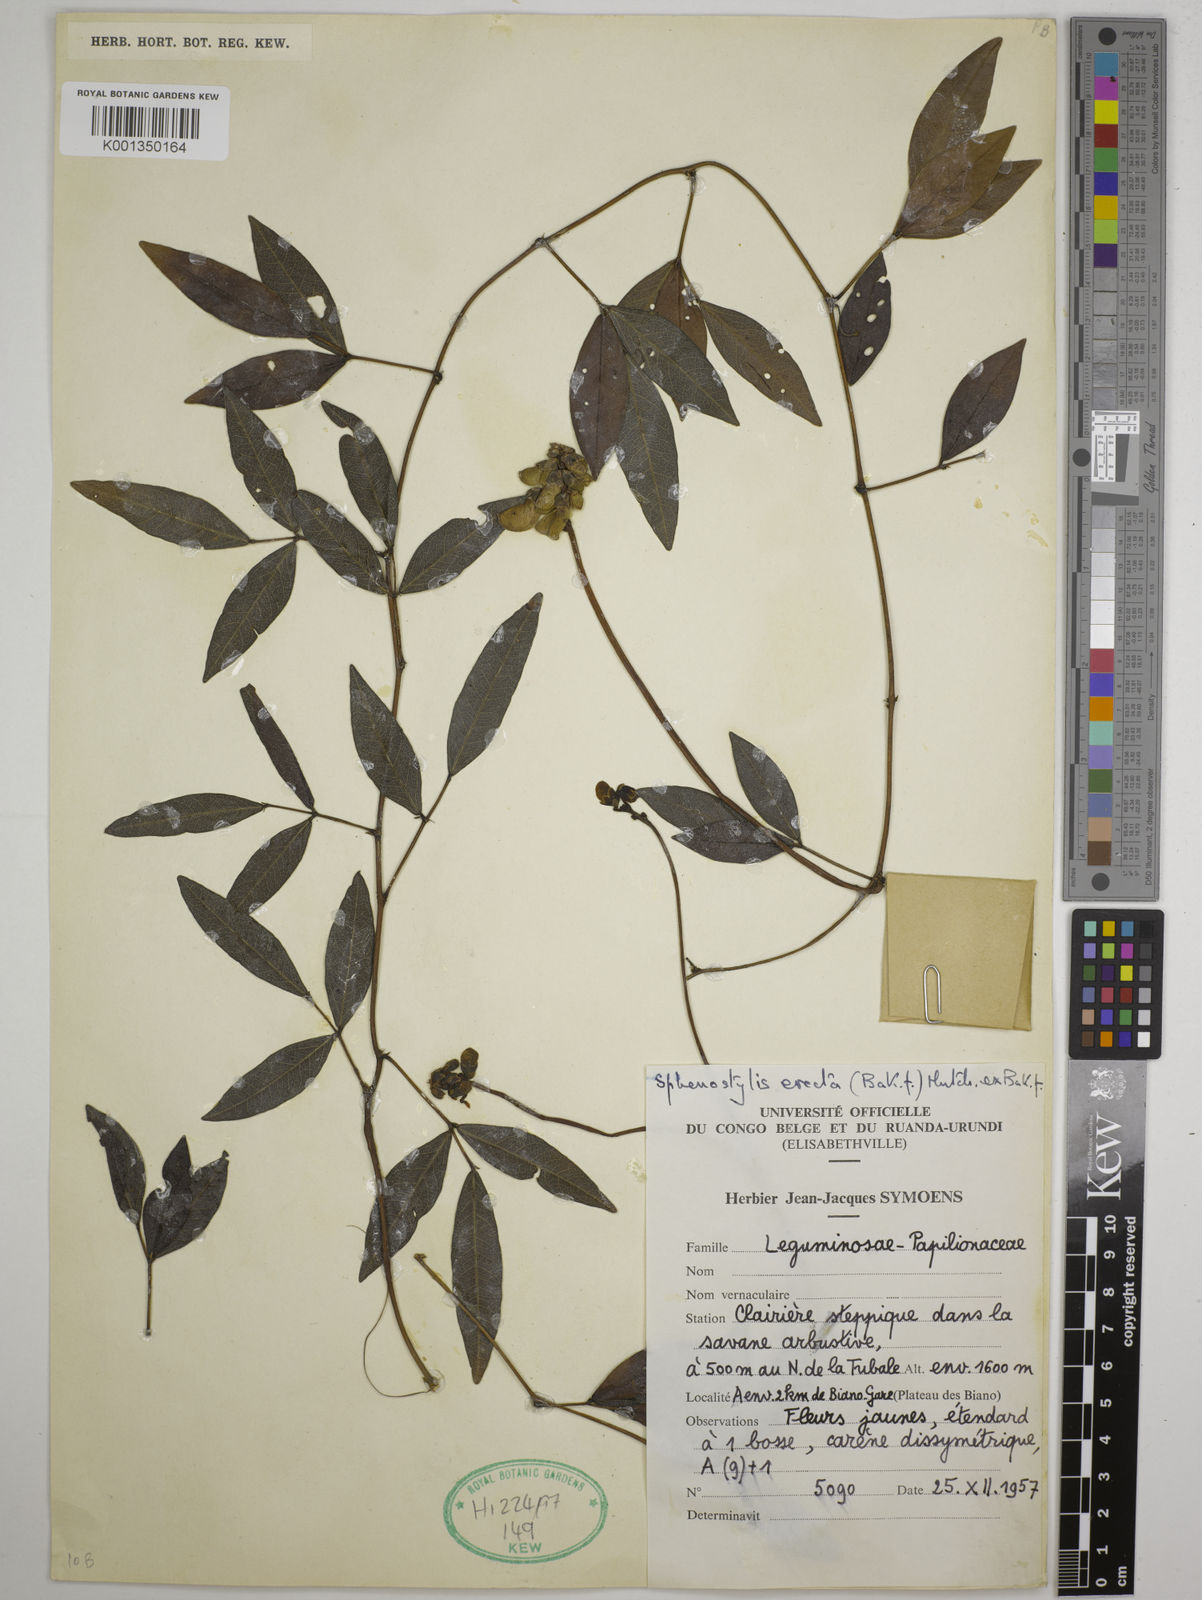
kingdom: Plantae
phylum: Tracheophyta
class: Magnoliopsida
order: Fabales
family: Fabaceae
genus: Sphenostylis
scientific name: Sphenostylis erecta
